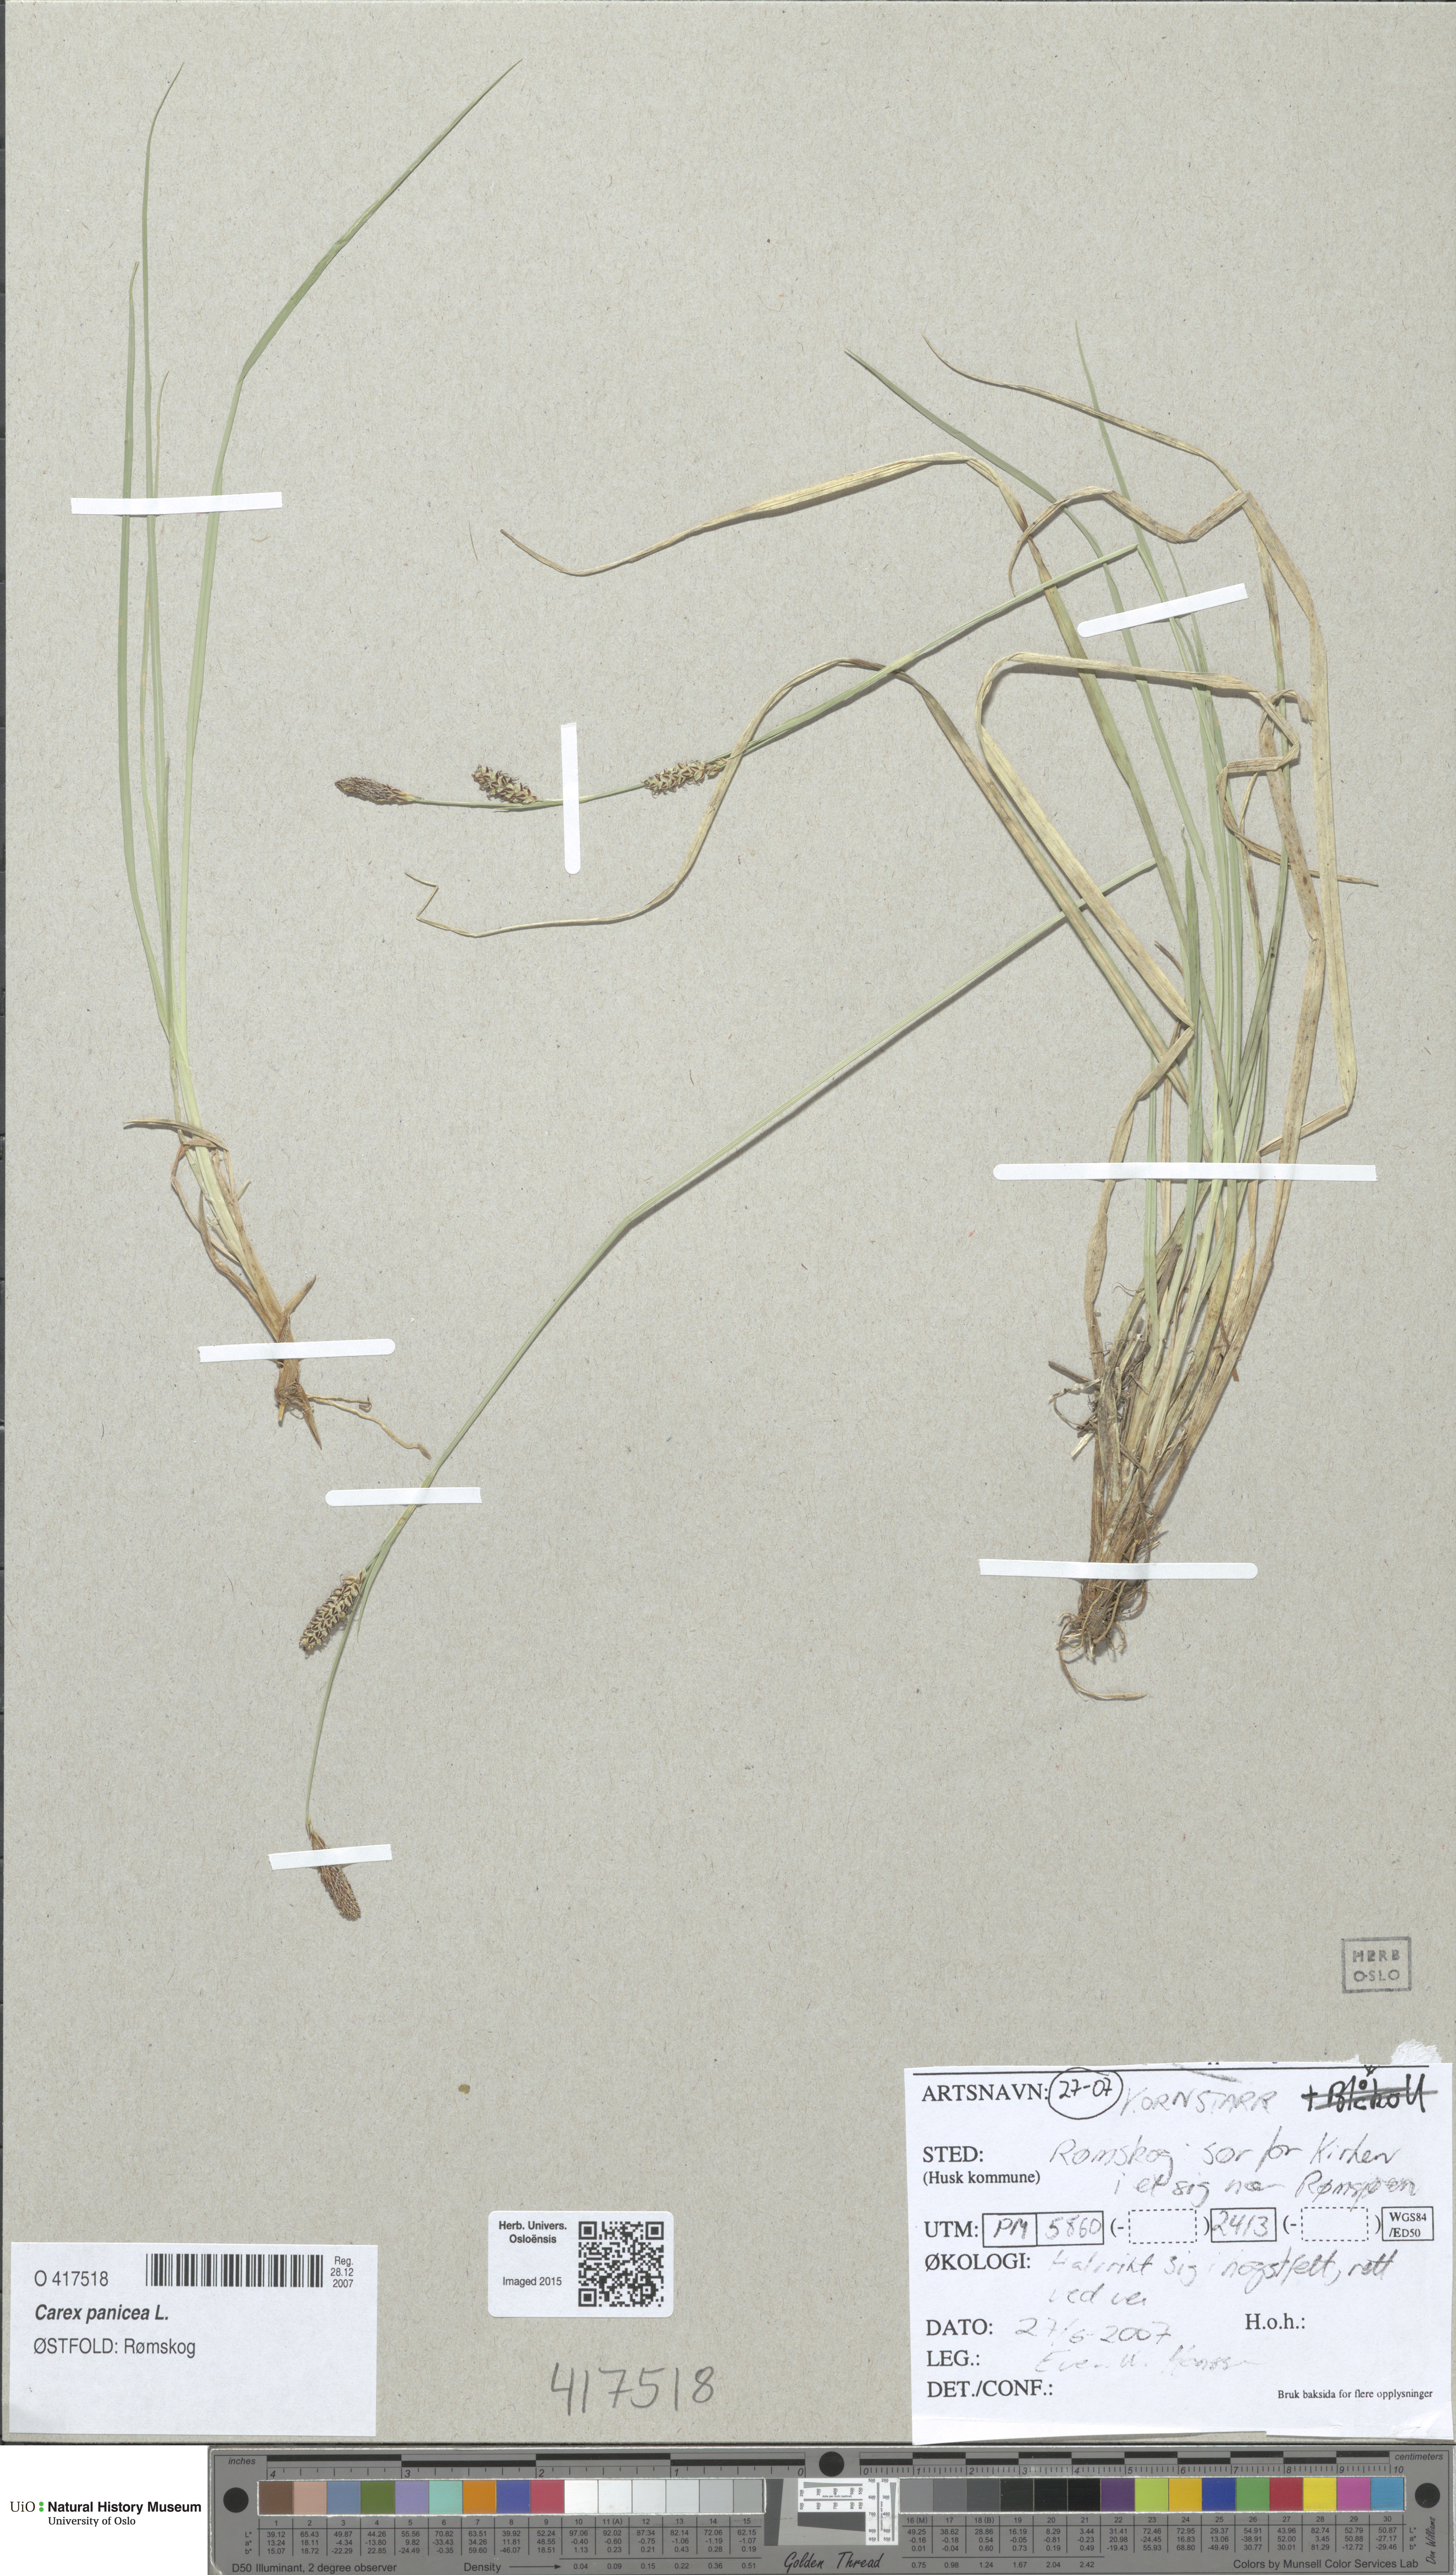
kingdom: Plantae
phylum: Tracheophyta
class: Liliopsida
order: Poales
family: Cyperaceae
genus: Carex
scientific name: Carex panicea
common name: Carnation sedge
